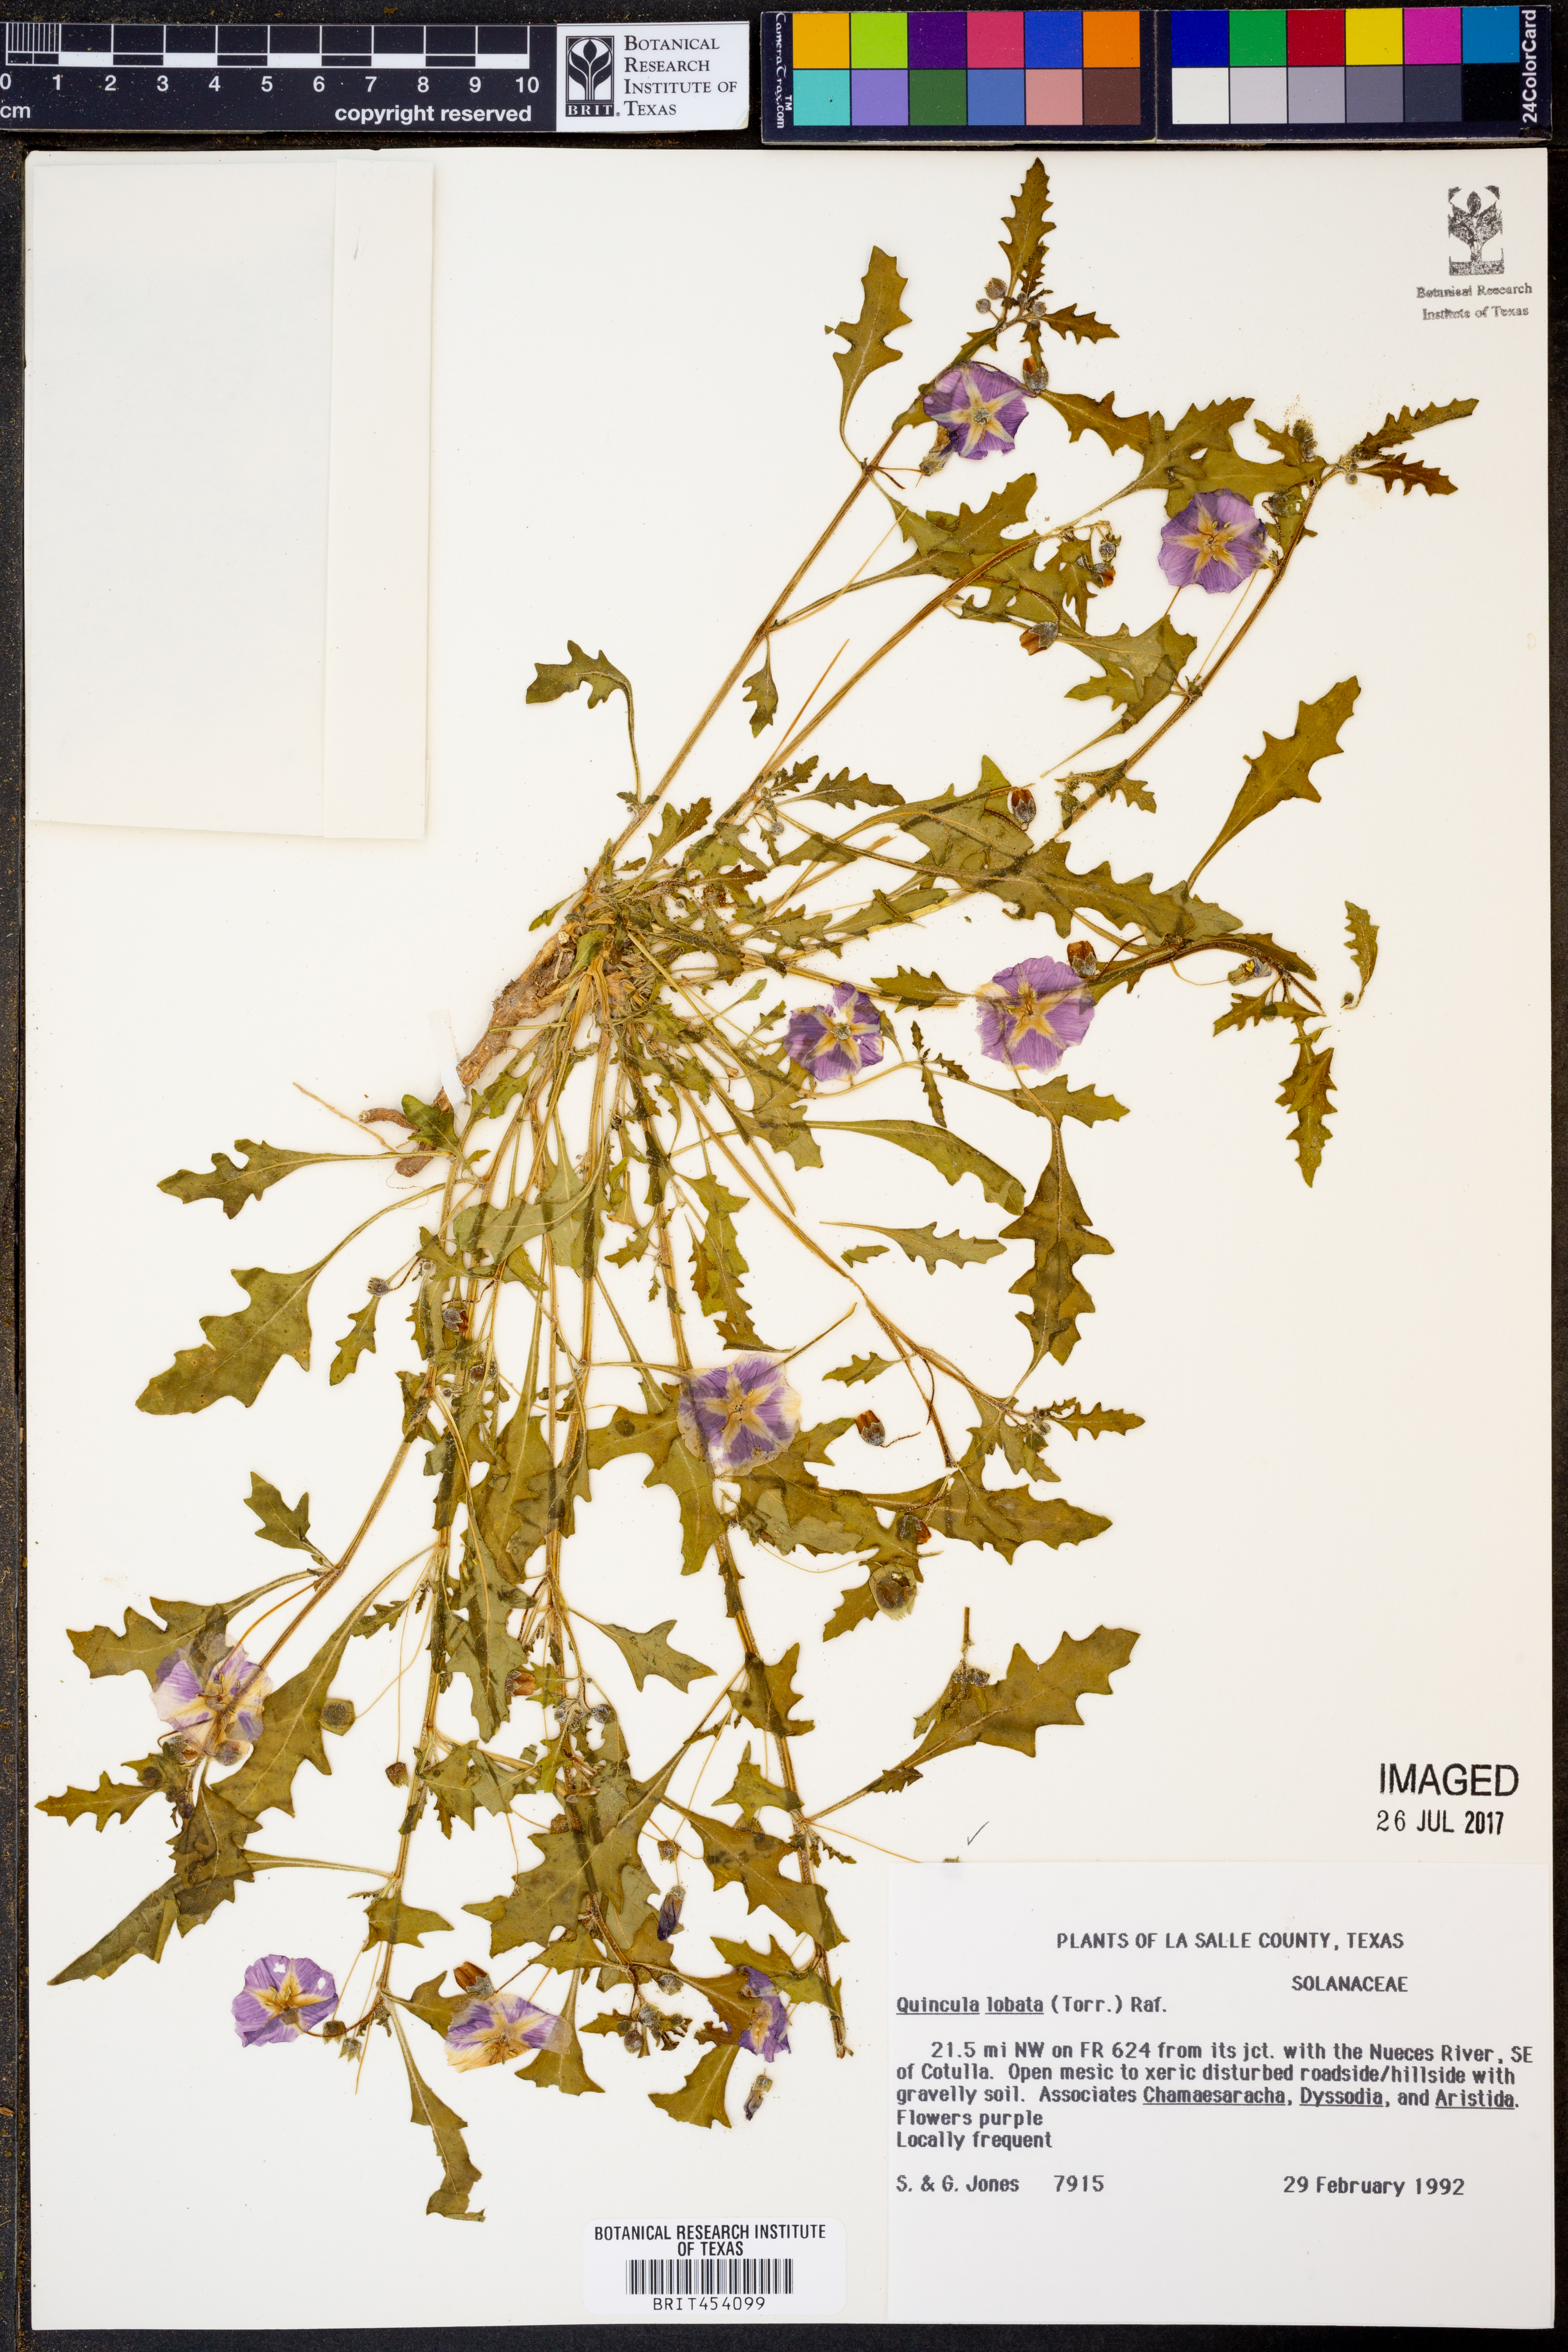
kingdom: Plantae
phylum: Tracheophyta
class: Magnoliopsida
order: Solanales
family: Solanaceae
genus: Quincula
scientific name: Quincula lobata
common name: Purple-ground-cherry
